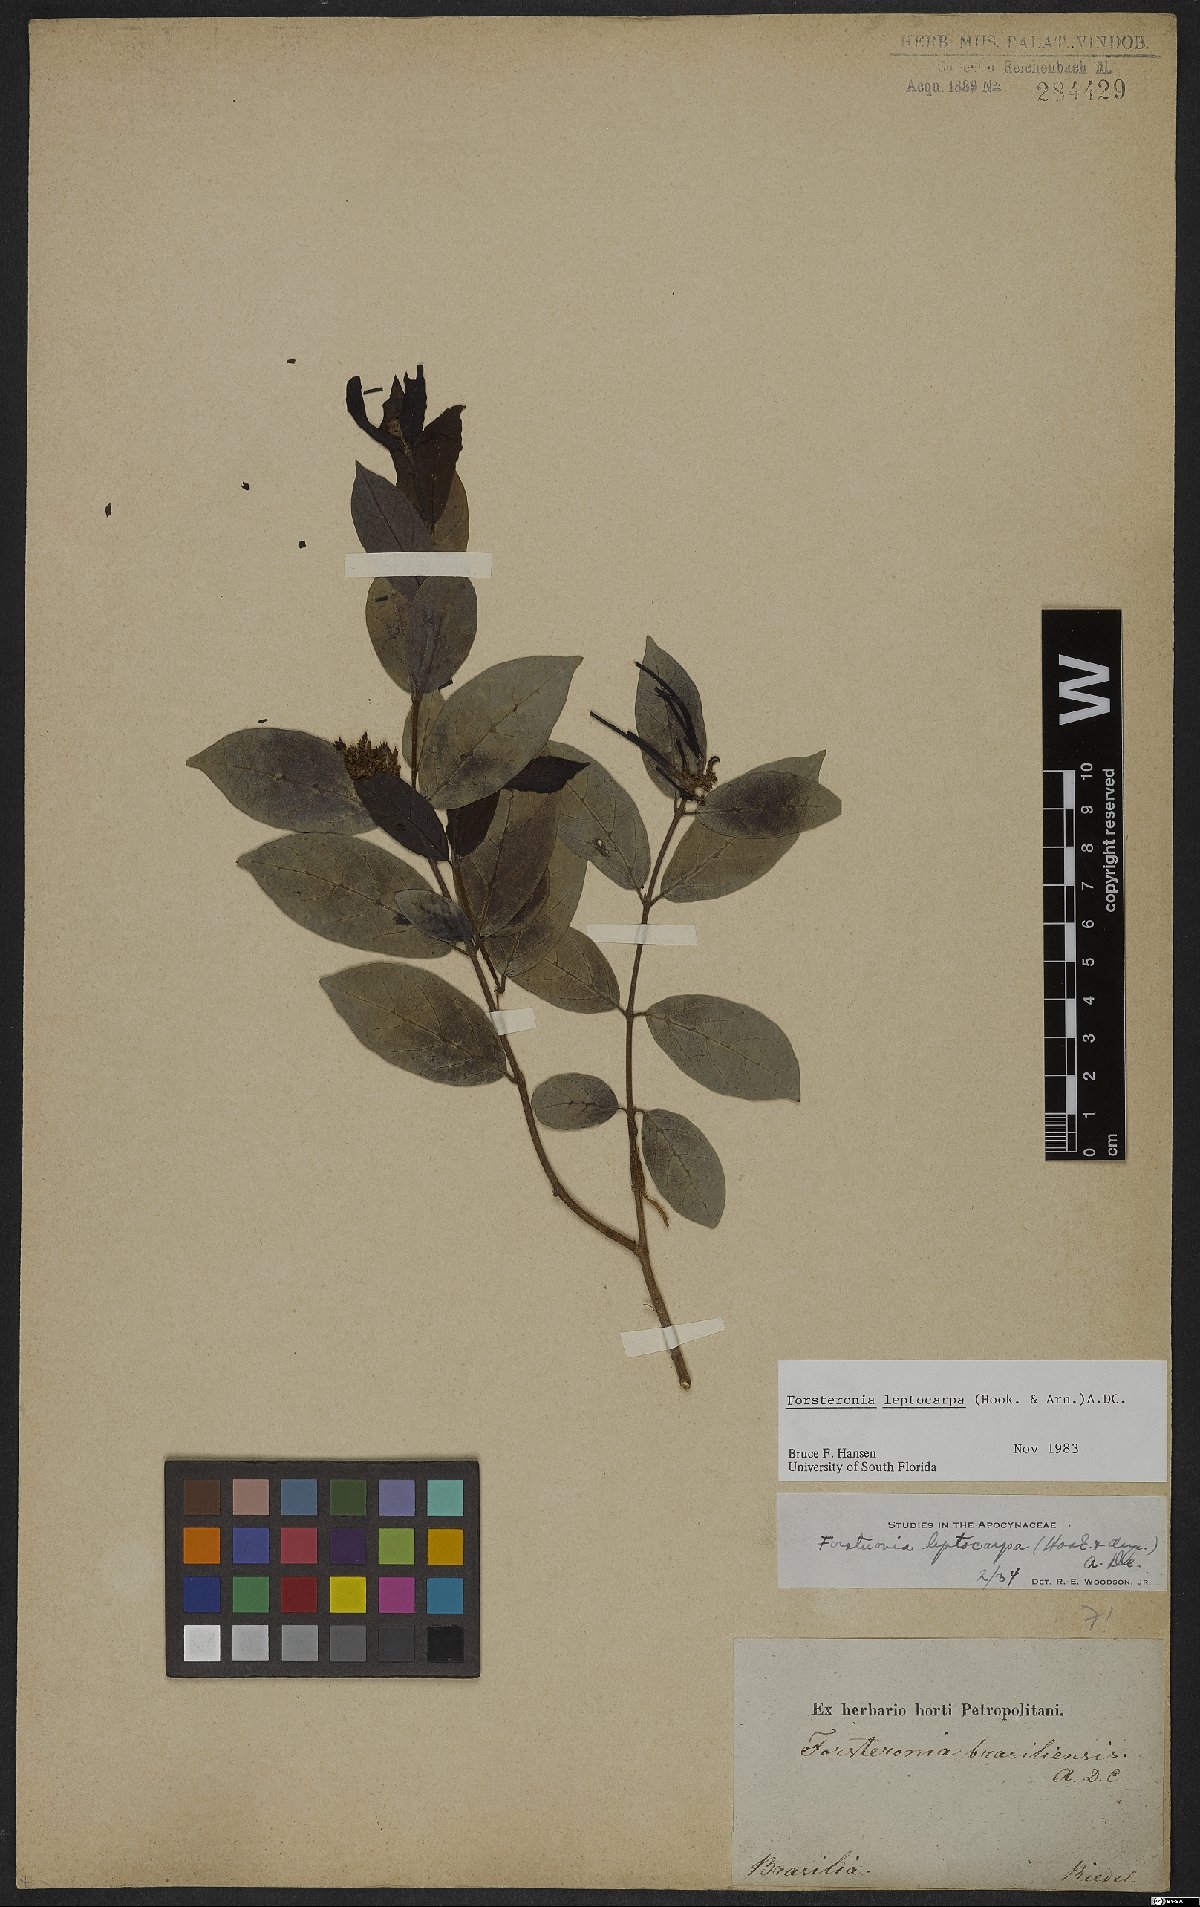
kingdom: Plantae
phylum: Tracheophyta
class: Magnoliopsida
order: Gentianales
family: Apocynaceae
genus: Forsteronia
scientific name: Forsteronia leptocarpa
